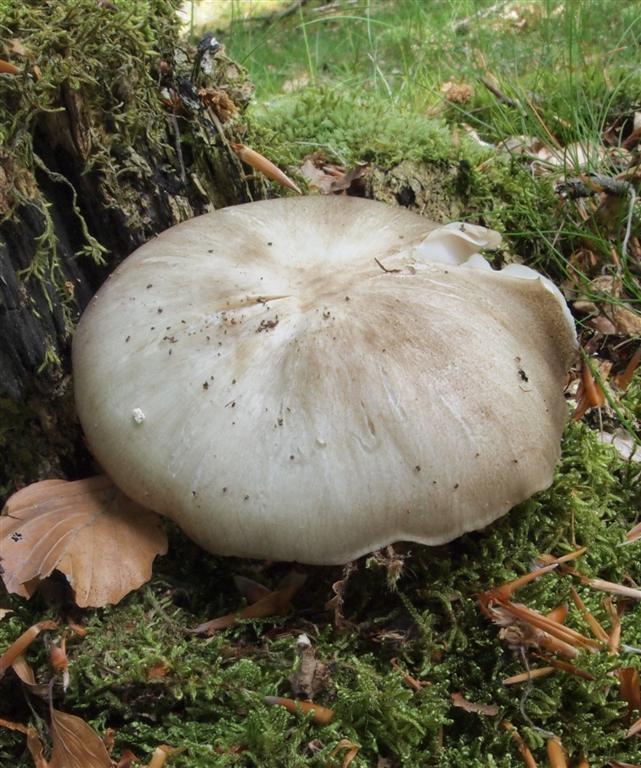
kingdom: Fungi
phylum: Basidiomycota
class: Agaricomycetes
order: Agaricales
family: Tricholomataceae
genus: Megacollybia
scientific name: Megacollybia platyphylla
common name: bredbladet væbnerhat
